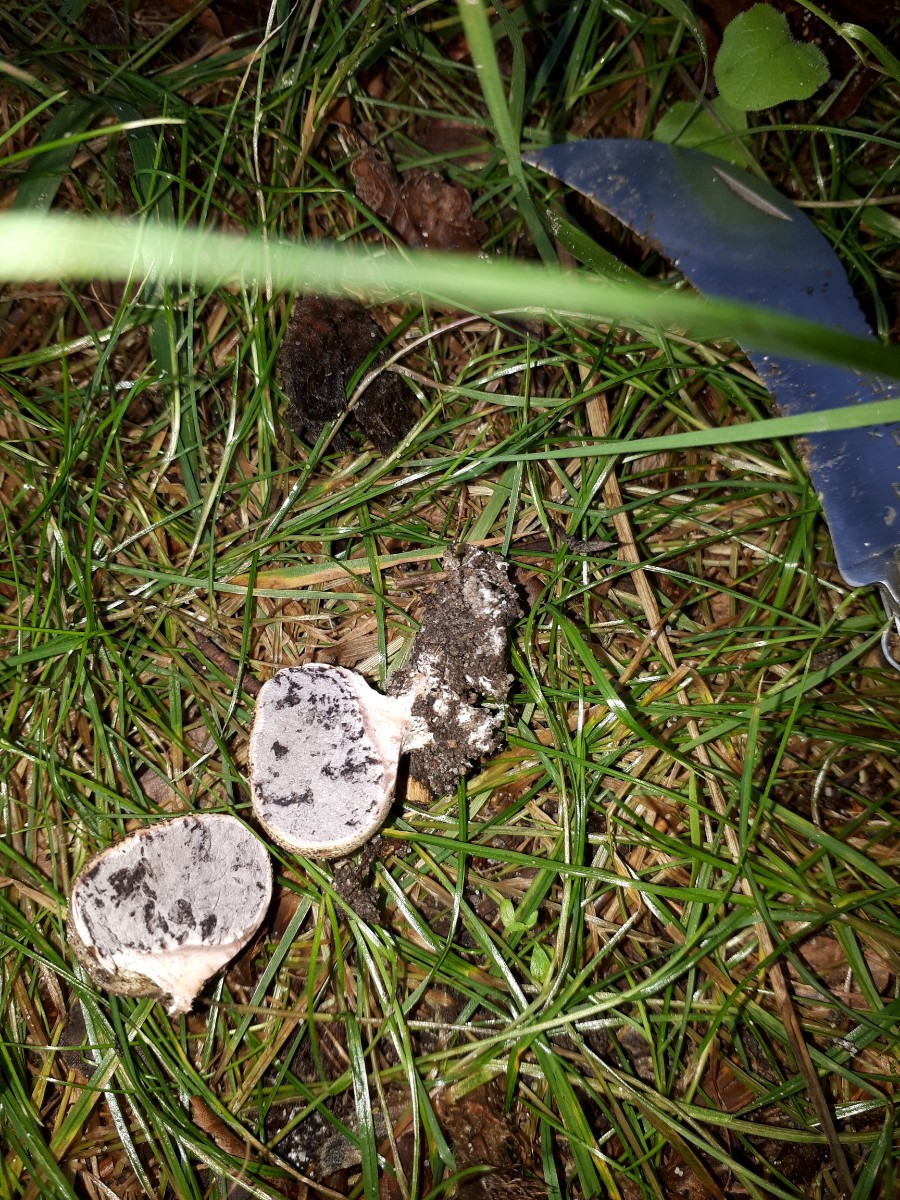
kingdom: Fungi
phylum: Basidiomycota
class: Agaricomycetes
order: Boletales
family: Sclerodermataceae
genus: Scleroderma
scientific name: Scleroderma verrucosum
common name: stilket bruskbold
